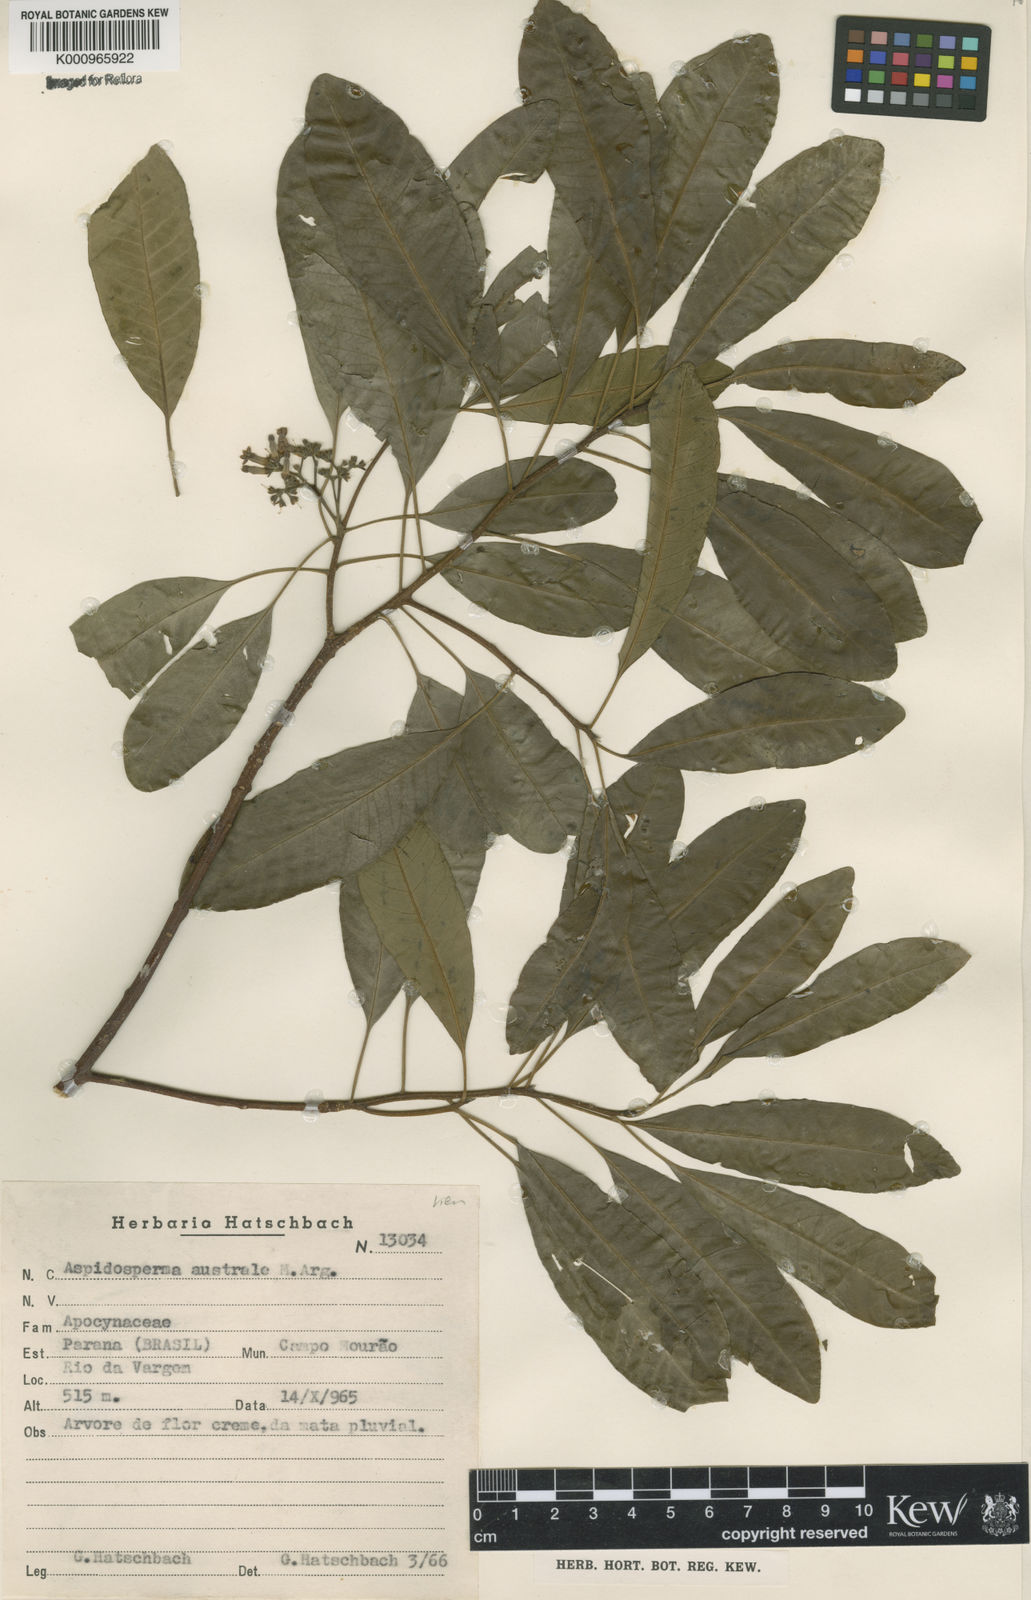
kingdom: Plantae
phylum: Tracheophyta
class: Magnoliopsida
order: Gentianales
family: Apocynaceae
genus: Aspidosperma
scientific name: Aspidosperma
